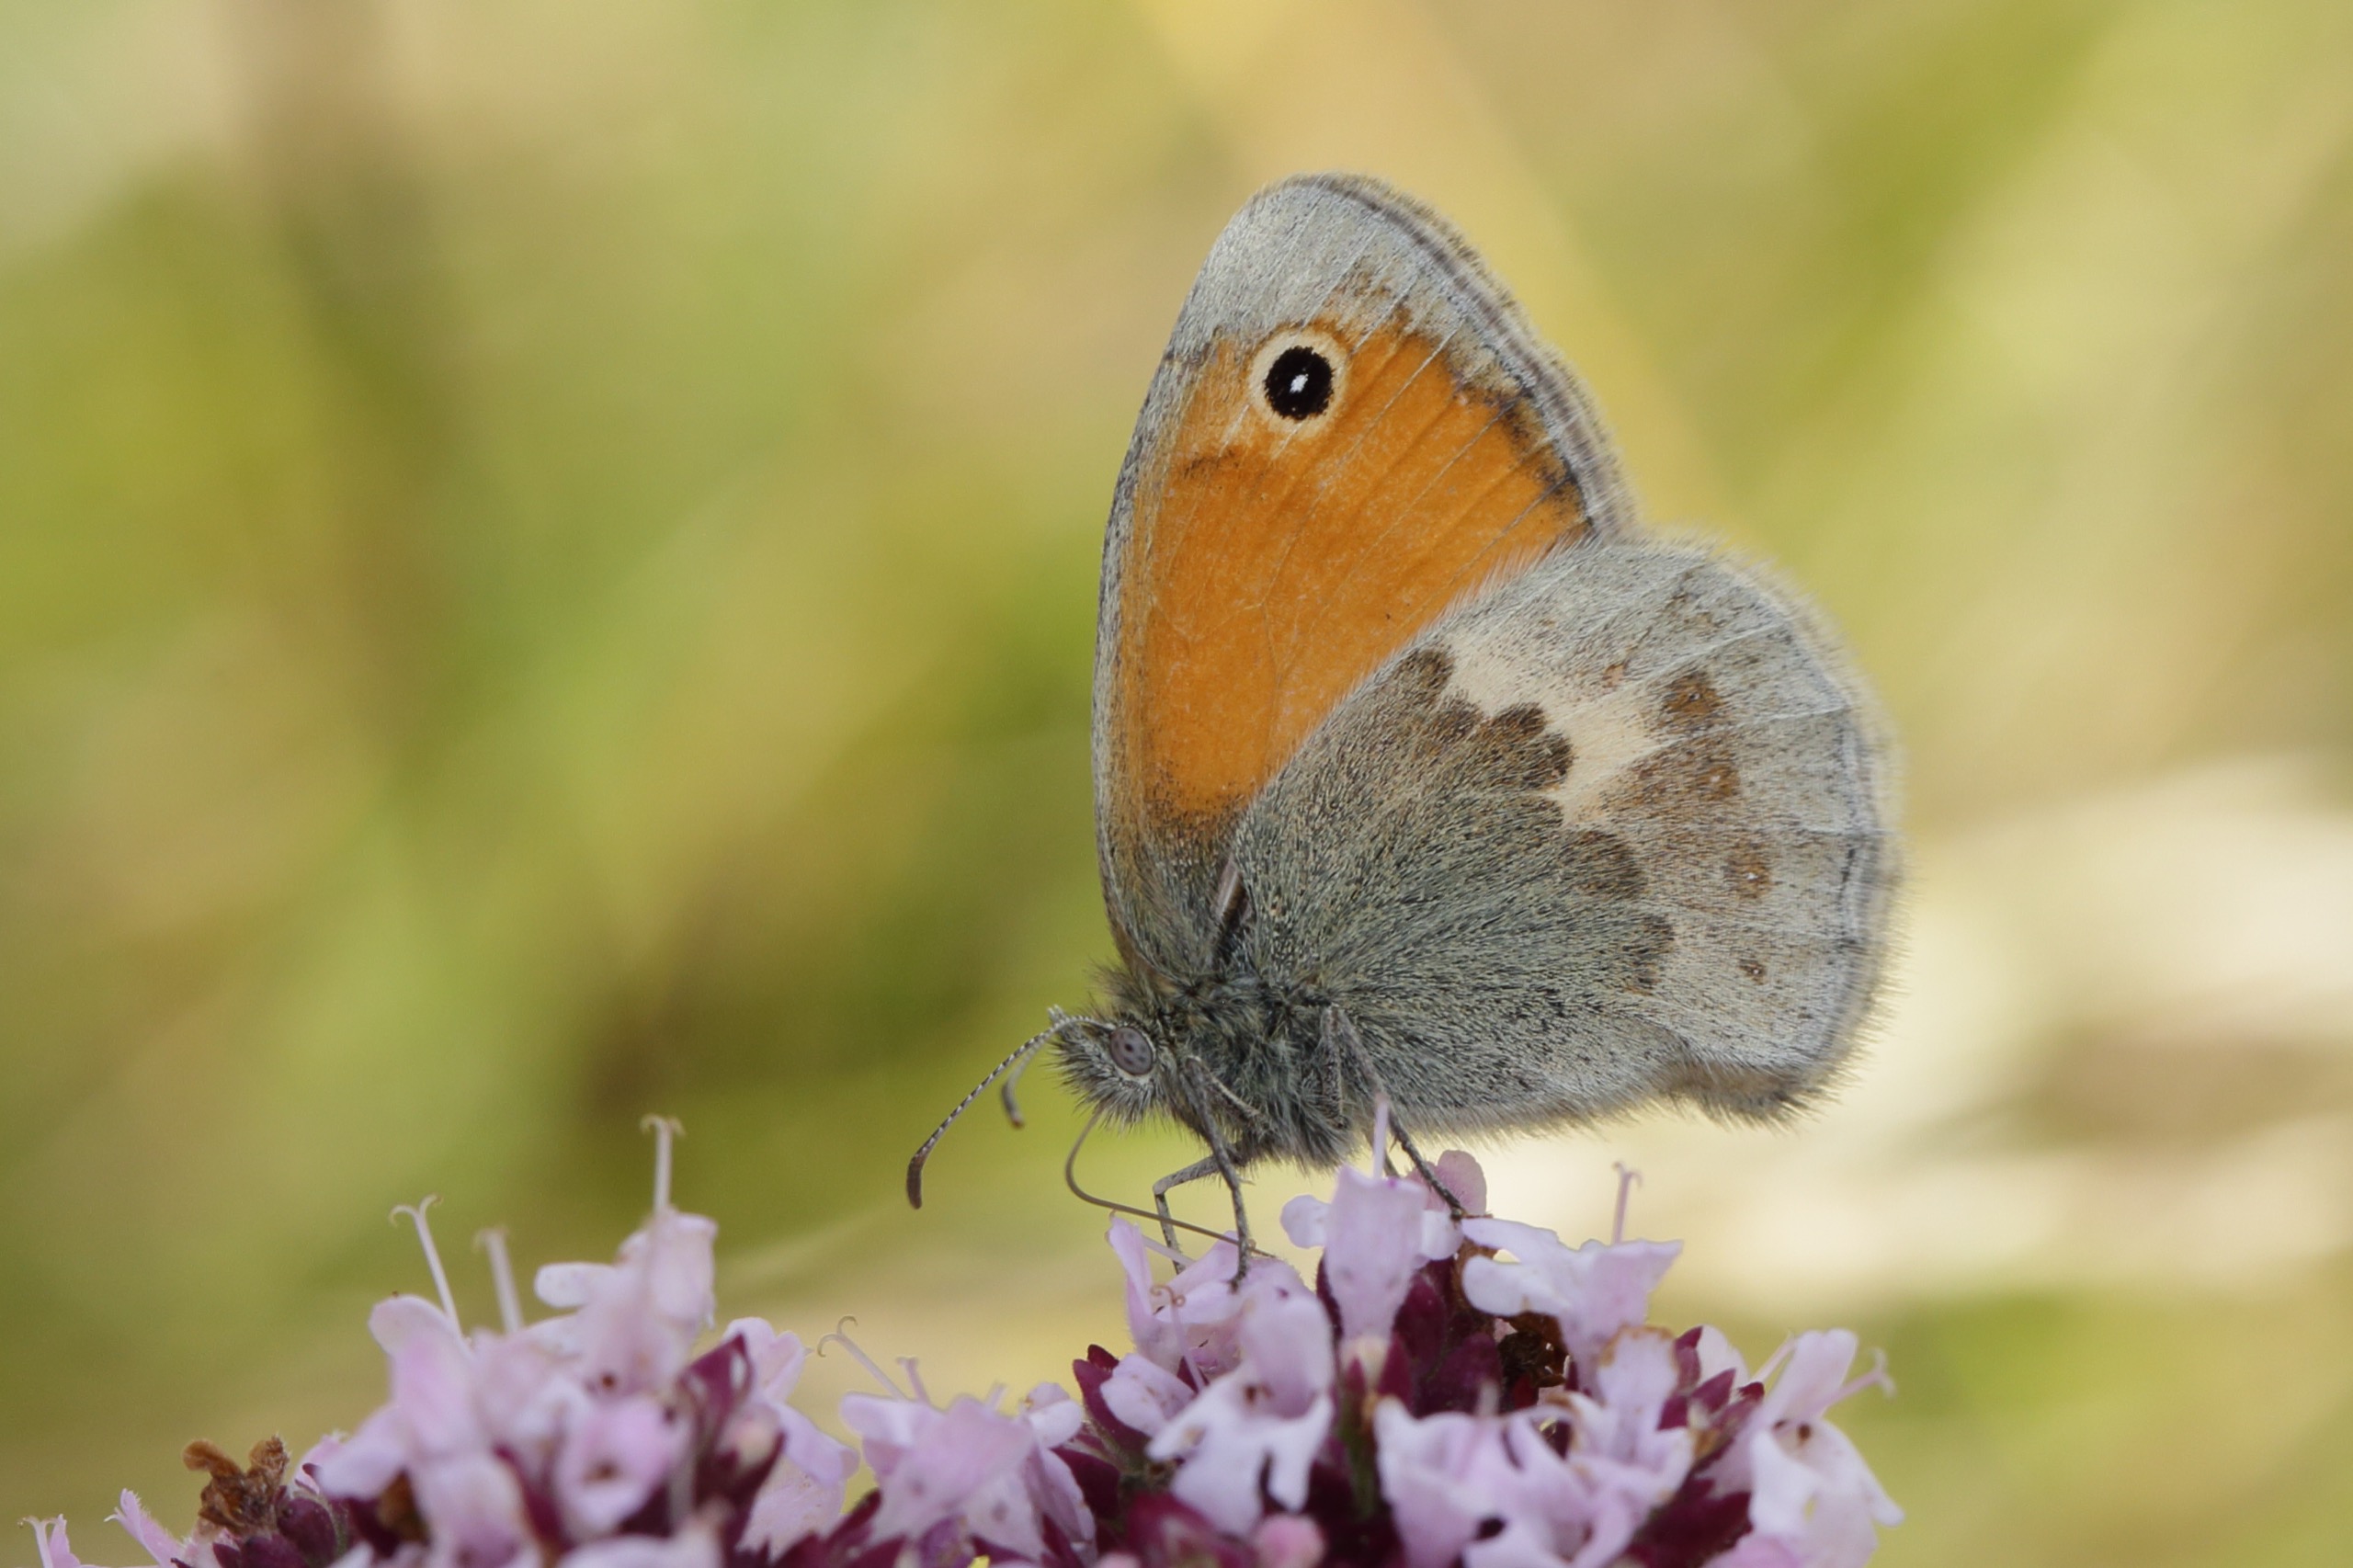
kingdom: Animalia
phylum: Arthropoda
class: Insecta
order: Lepidoptera
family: Nymphalidae
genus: Coenonympha
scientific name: Coenonympha pamphilus
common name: Okkergul randøje
